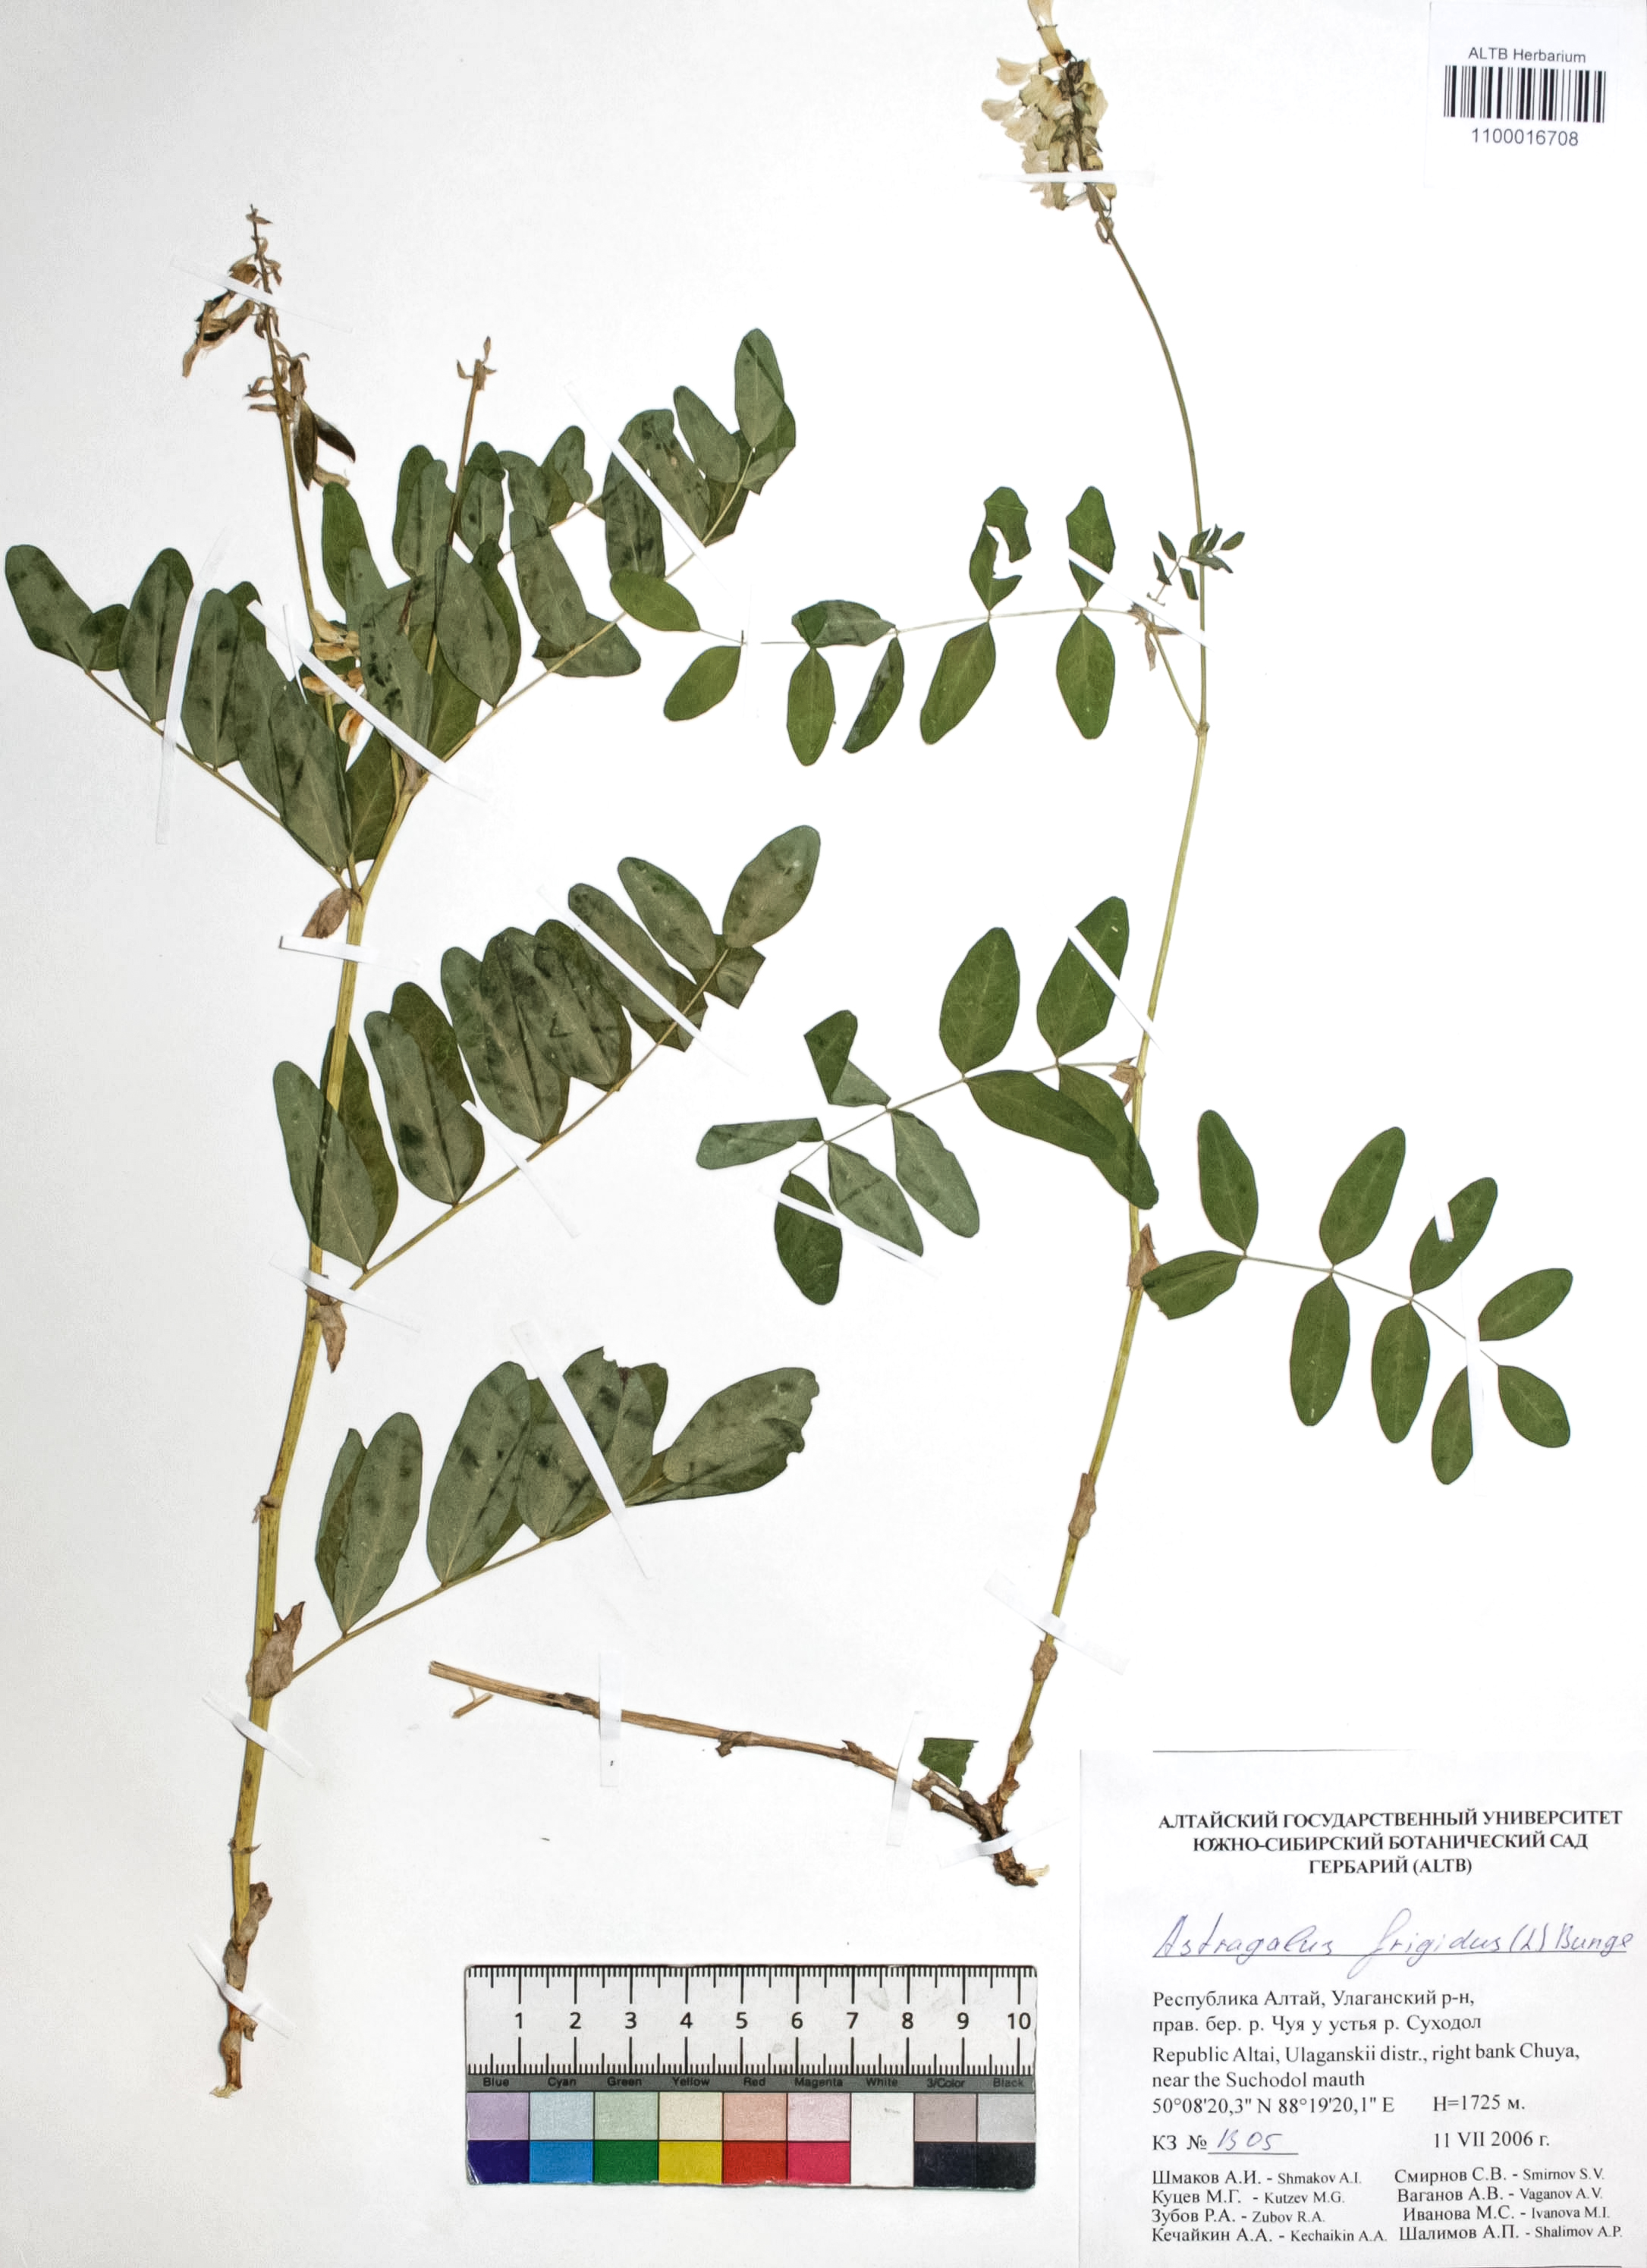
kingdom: Plantae
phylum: Tracheophyta
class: Magnoliopsida
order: Fabales
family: Fabaceae
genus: Astragalus
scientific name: Astragalus frigidus
